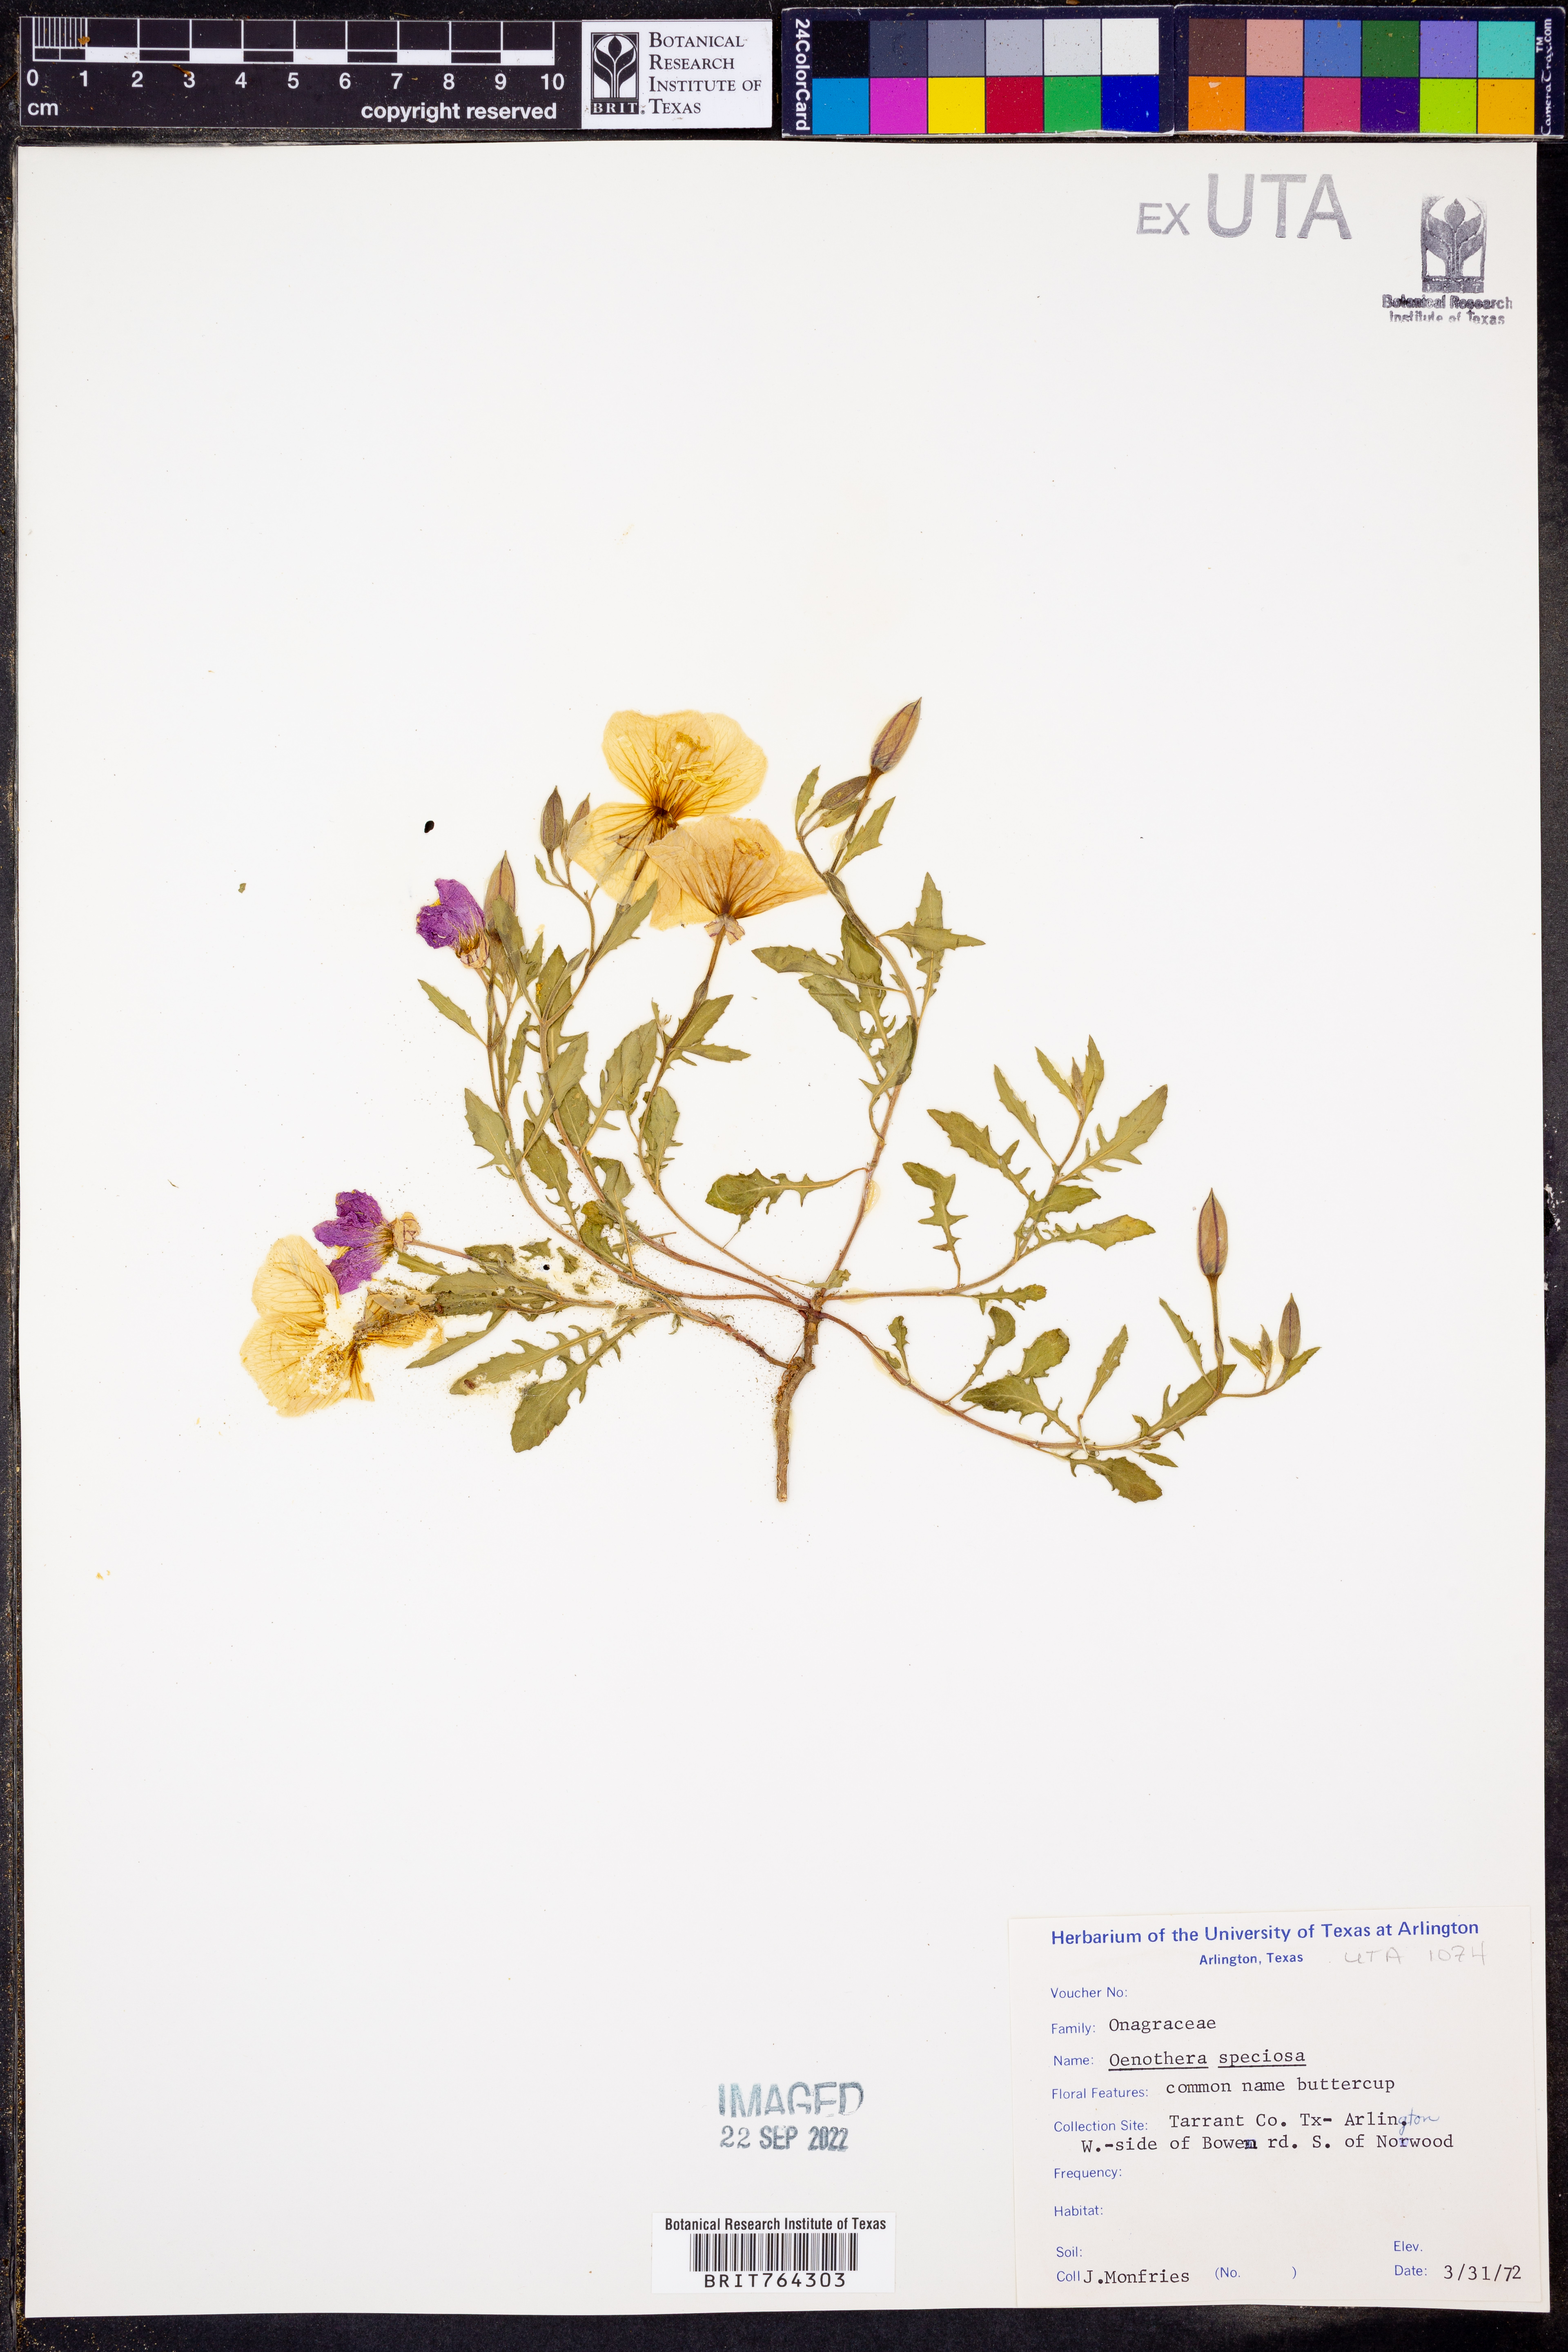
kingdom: Plantae
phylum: Tracheophyta
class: Magnoliopsida
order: Myrtales
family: Onagraceae
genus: Oenothera
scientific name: Oenothera speciosa
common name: White evening-primrose
